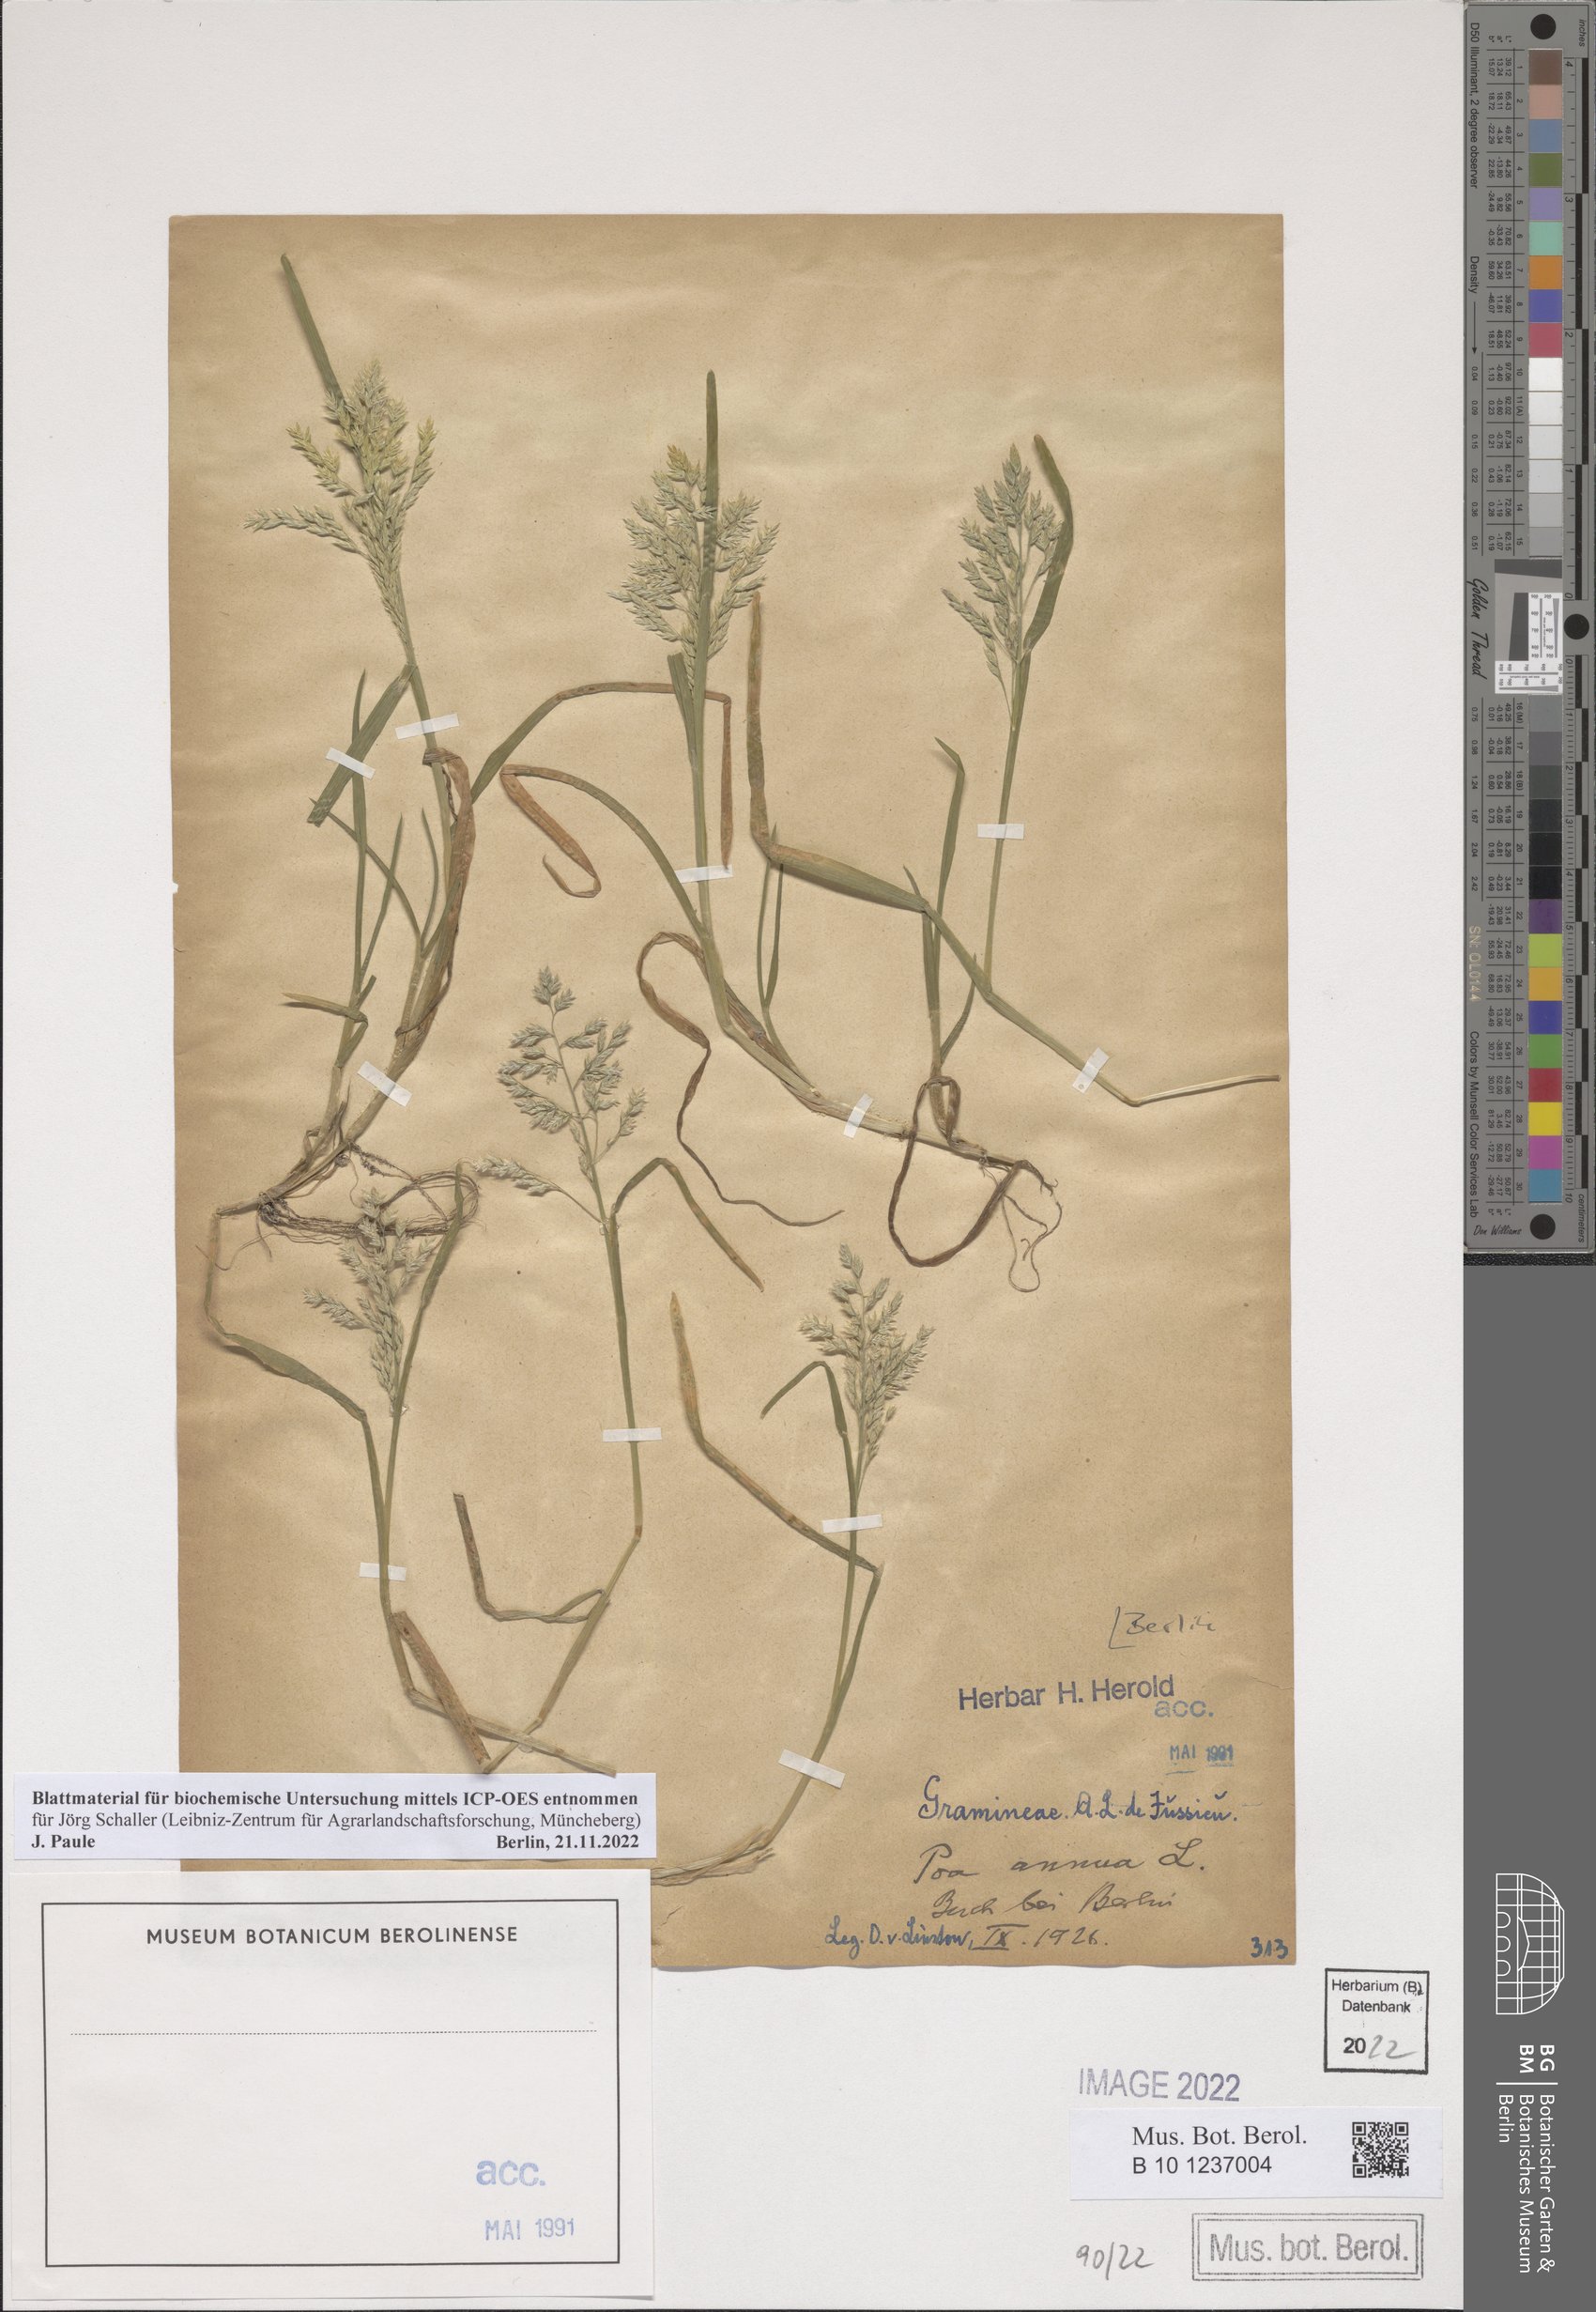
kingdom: Plantae
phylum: Tracheophyta
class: Liliopsida
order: Poales
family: Poaceae
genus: Poa
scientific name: Poa annua
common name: Annual bluegrass
